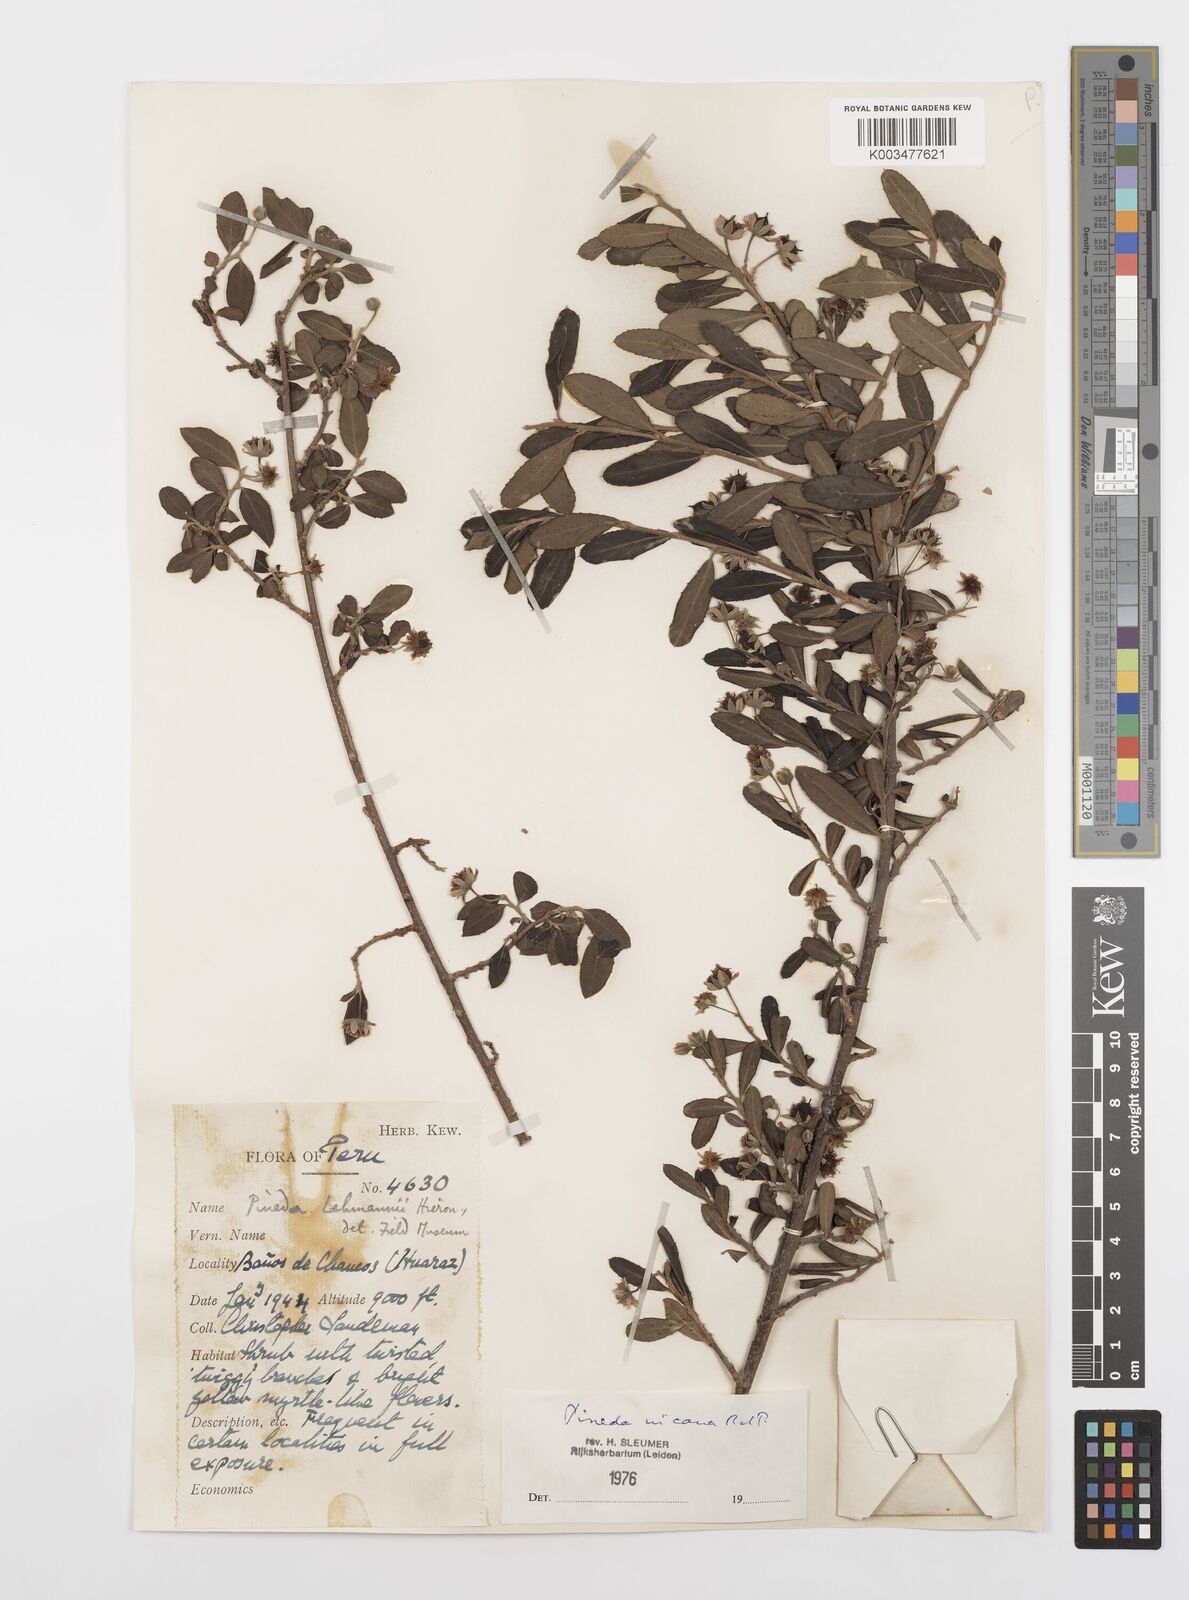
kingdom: Plantae
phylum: Tracheophyta
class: Magnoliopsida
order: Malpighiales
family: Salicaceae
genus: Pineda
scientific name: Pineda incana
